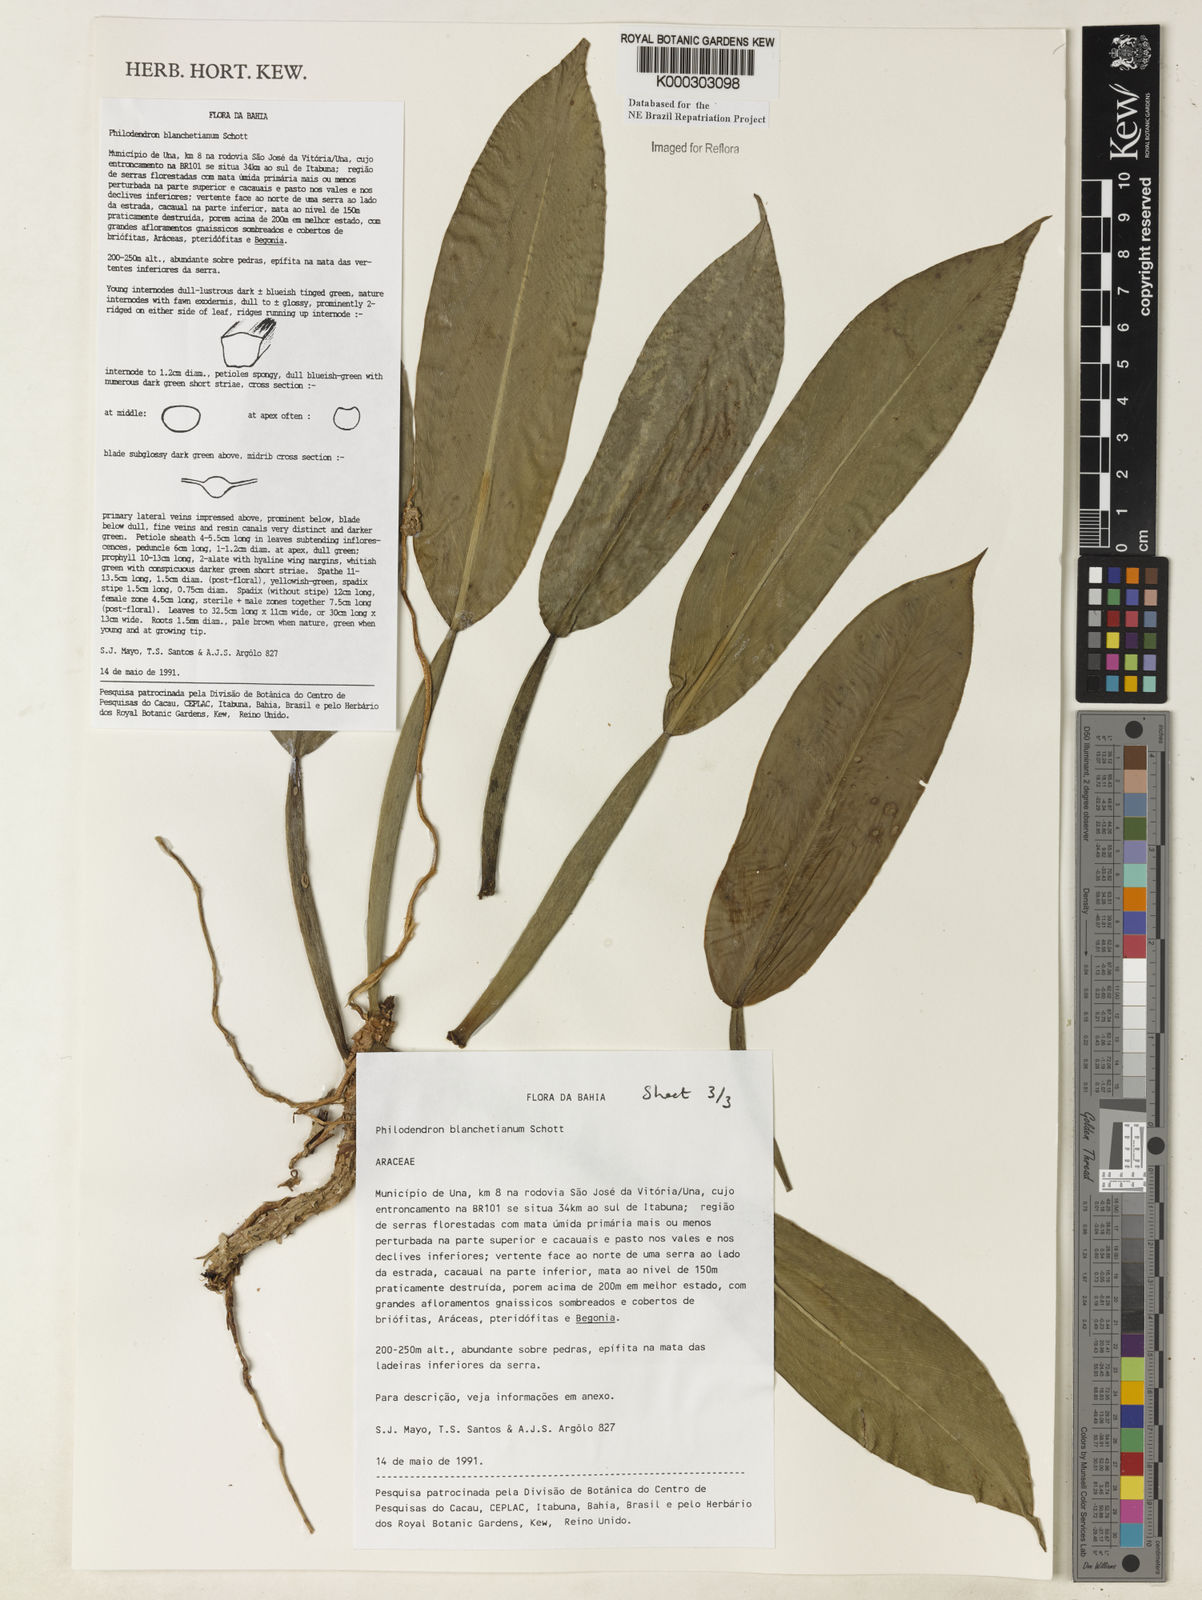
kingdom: Plantae
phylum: Tracheophyta
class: Liliopsida
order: Alismatales
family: Araceae
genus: Philodendron
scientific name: Philodendron blanchetianum
